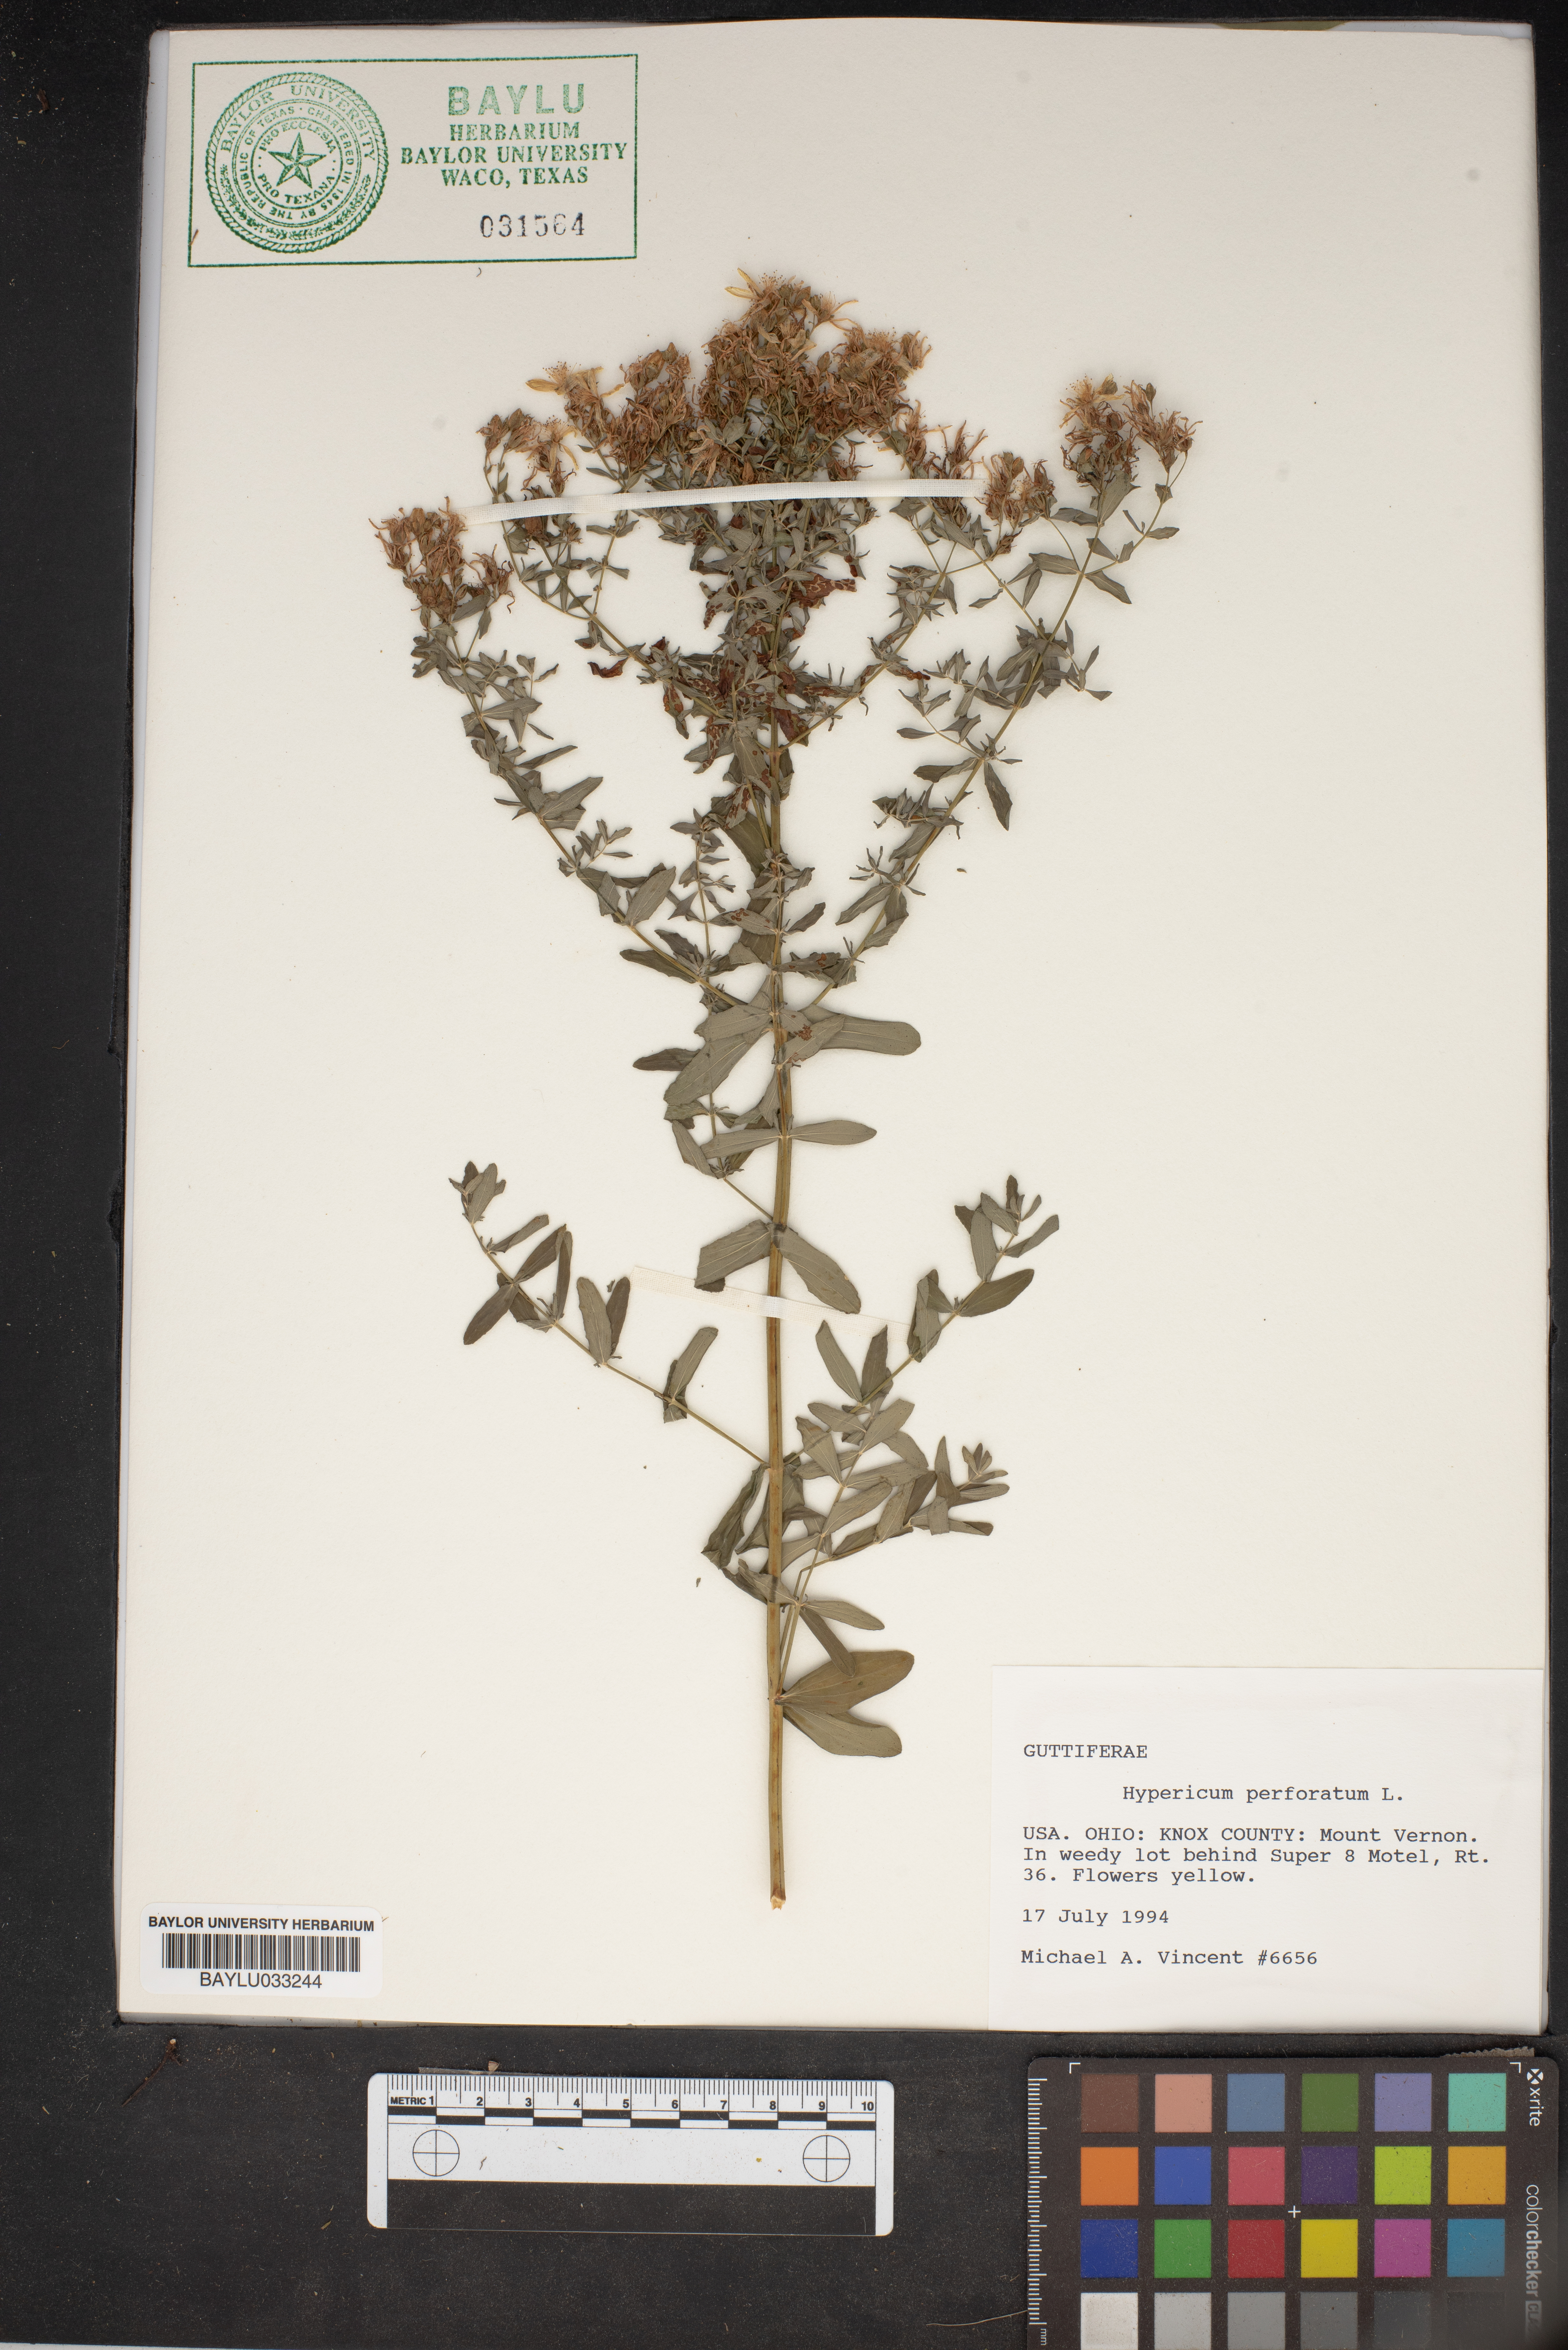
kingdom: Plantae
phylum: Tracheophyta
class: Magnoliopsida
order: Malpighiales
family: Hypericaceae
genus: Hypericum
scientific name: Hypericum perforatum
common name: Common st. johnswort
